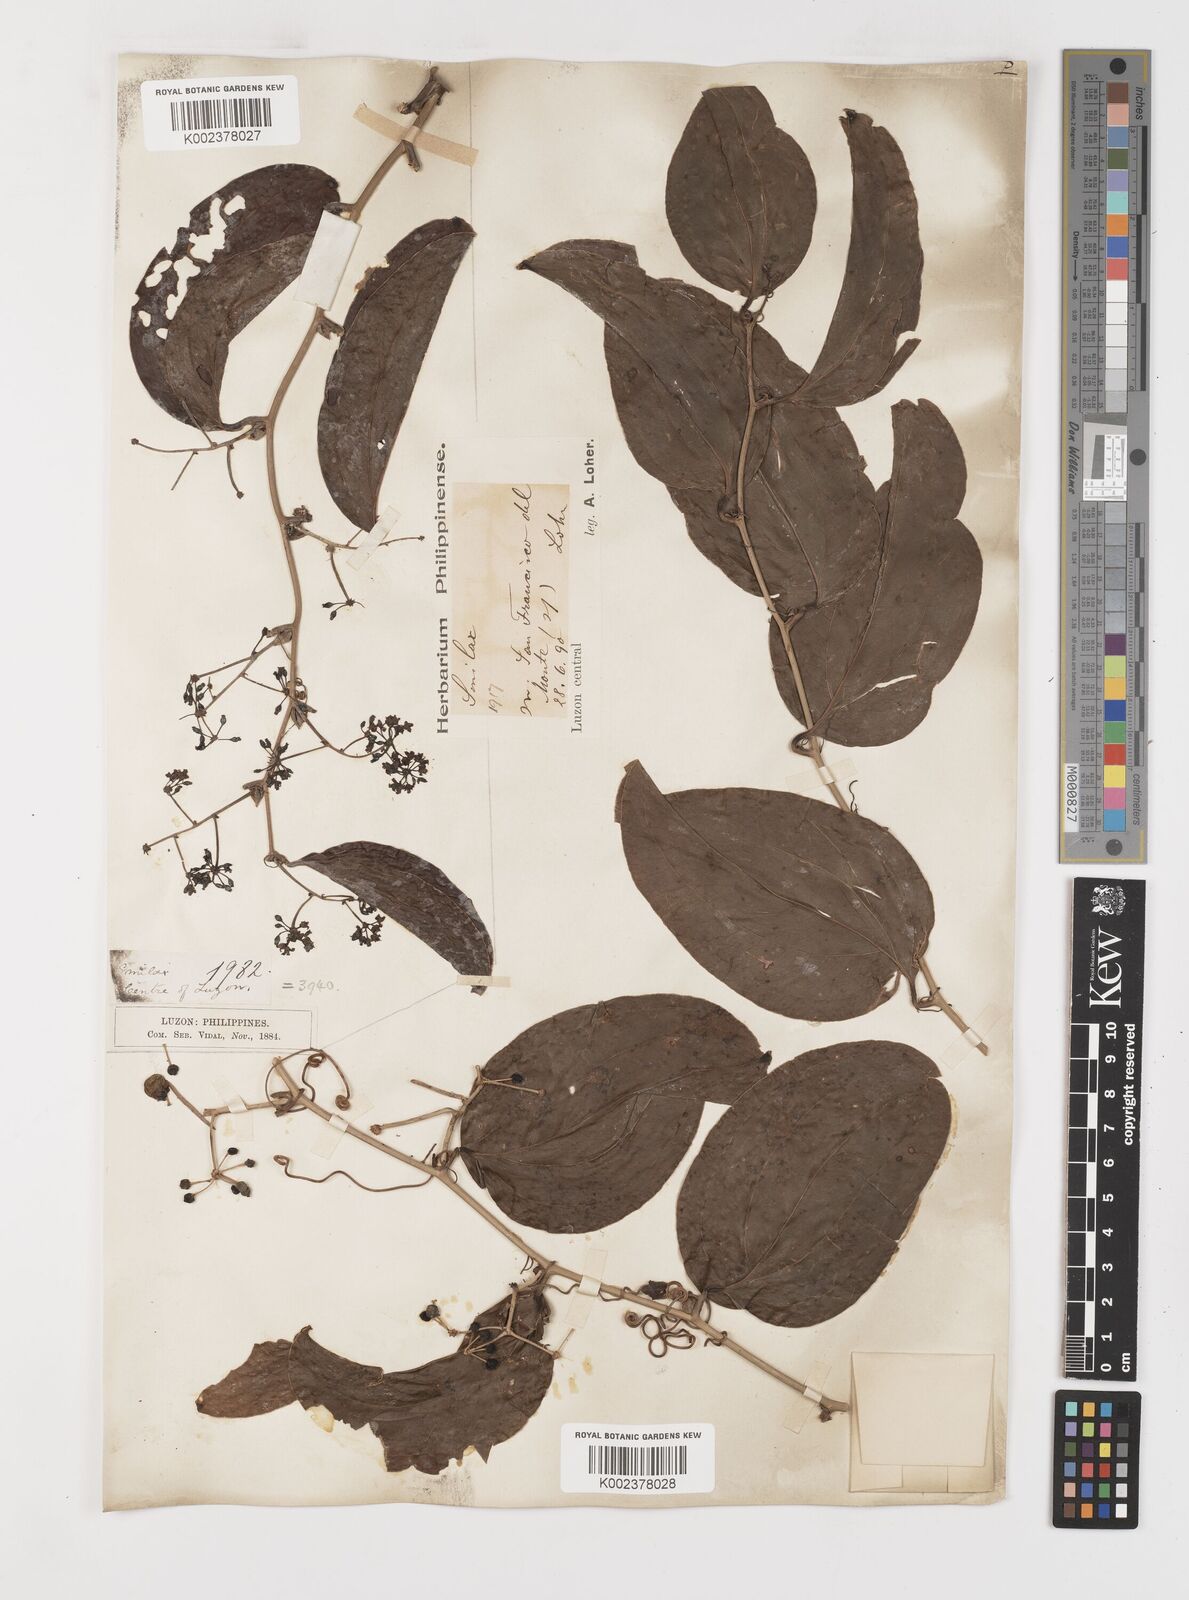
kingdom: Plantae
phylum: Tracheophyta
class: Liliopsida
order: Liliales
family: Smilacaceae
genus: Smilax
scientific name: Smilax bracteata
